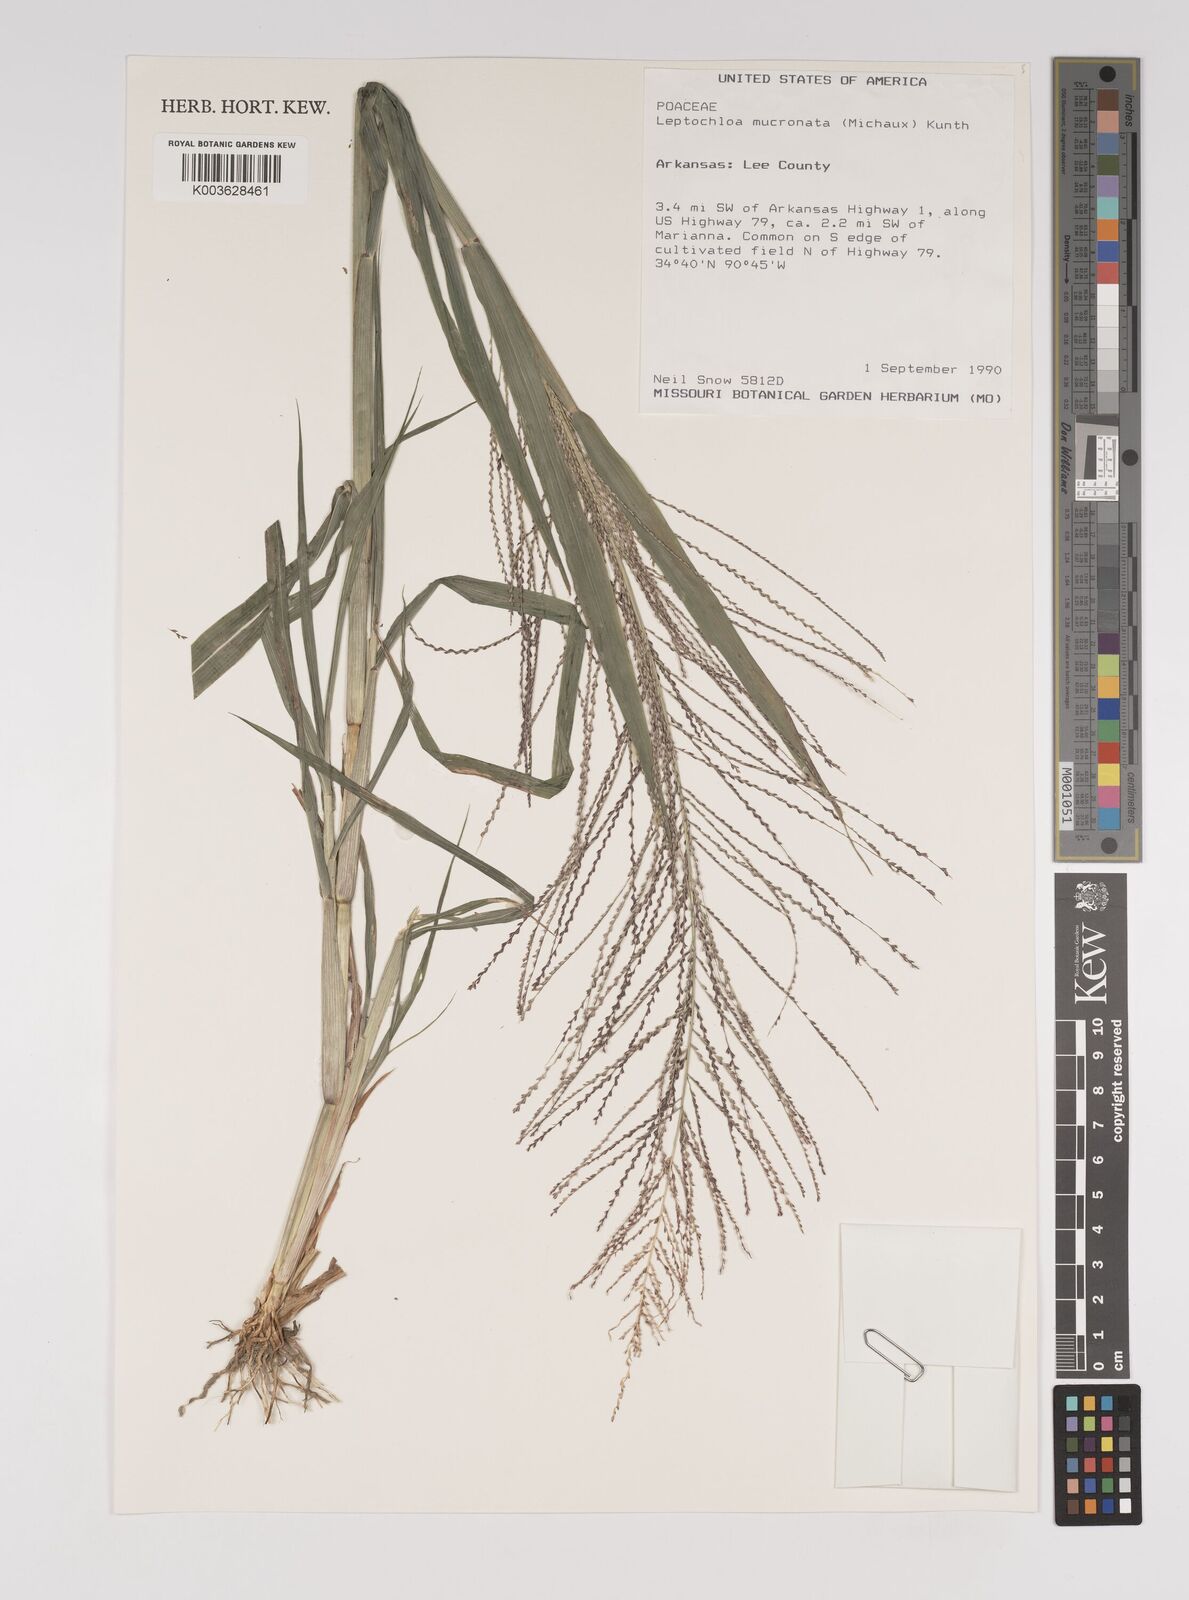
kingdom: Plantae
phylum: Tracheophyta
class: Liliopsida
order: Poales
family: Poaceae
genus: Leptochloa
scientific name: Leptochloa panicea
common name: Mucronate sprangletop
